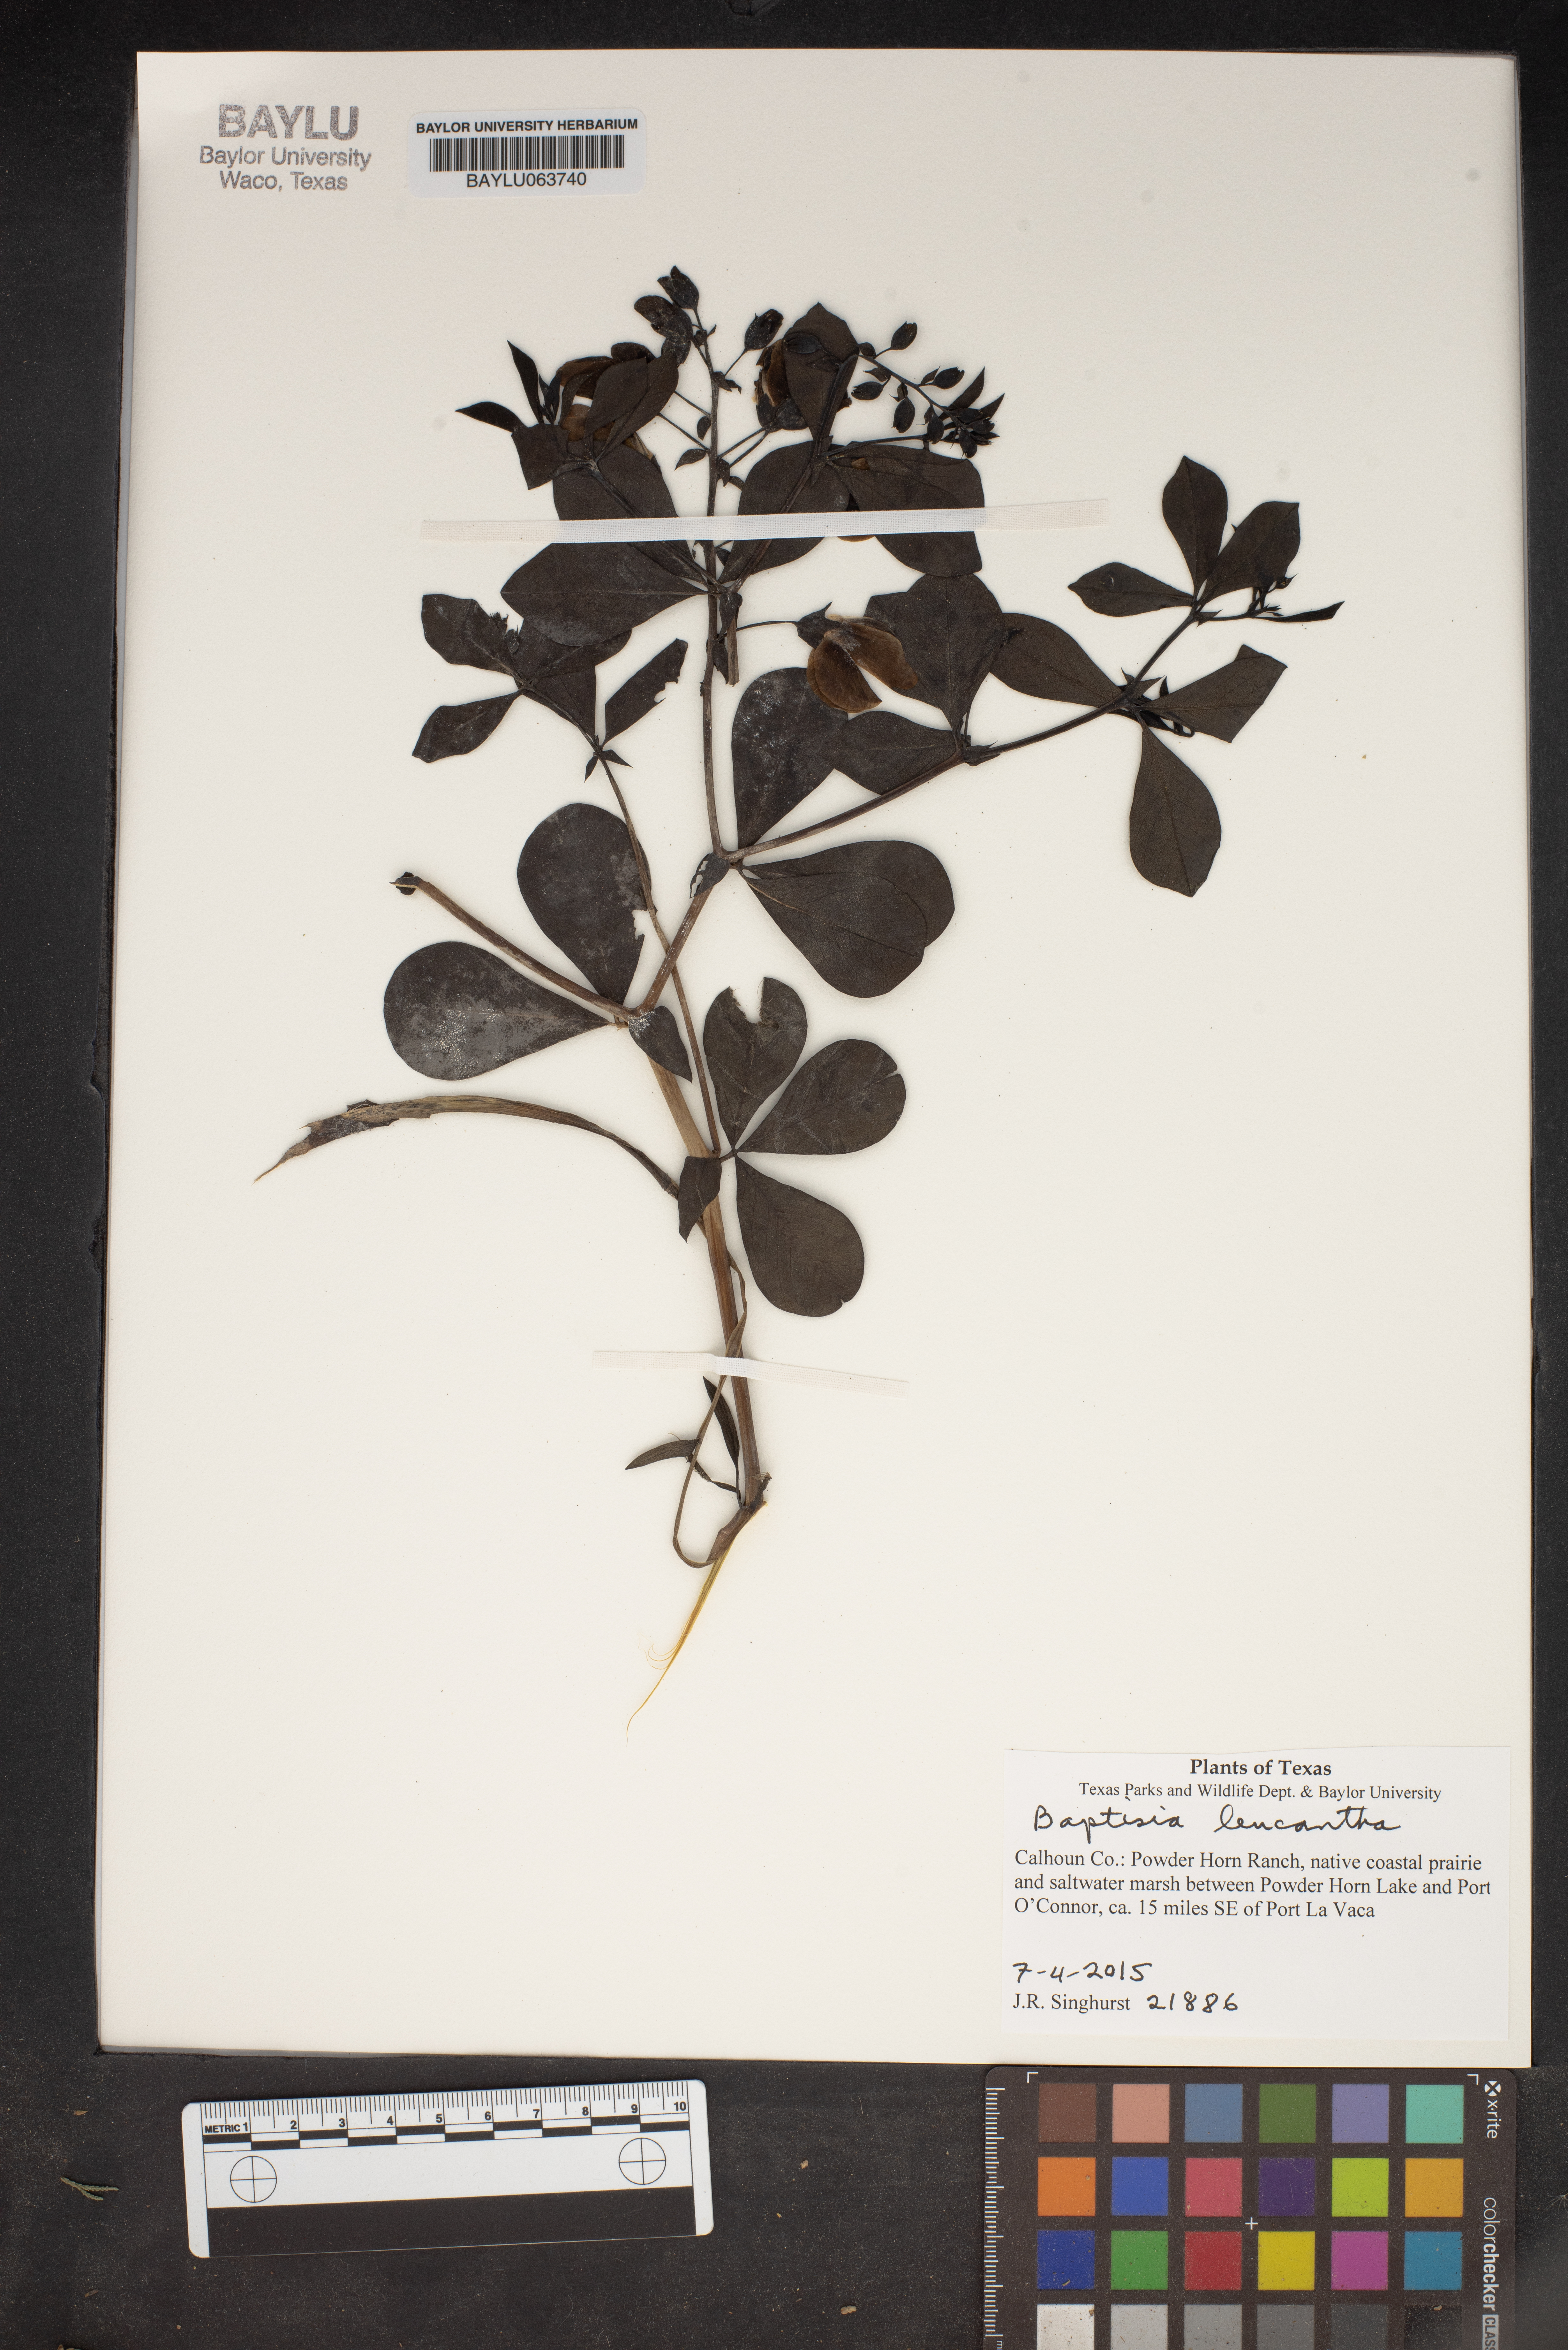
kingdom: Plantae
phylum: Tracheophyta
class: Magnoliopsida
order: Fabales
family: Fabaceae
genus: Baptisia
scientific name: Baptisia alba
